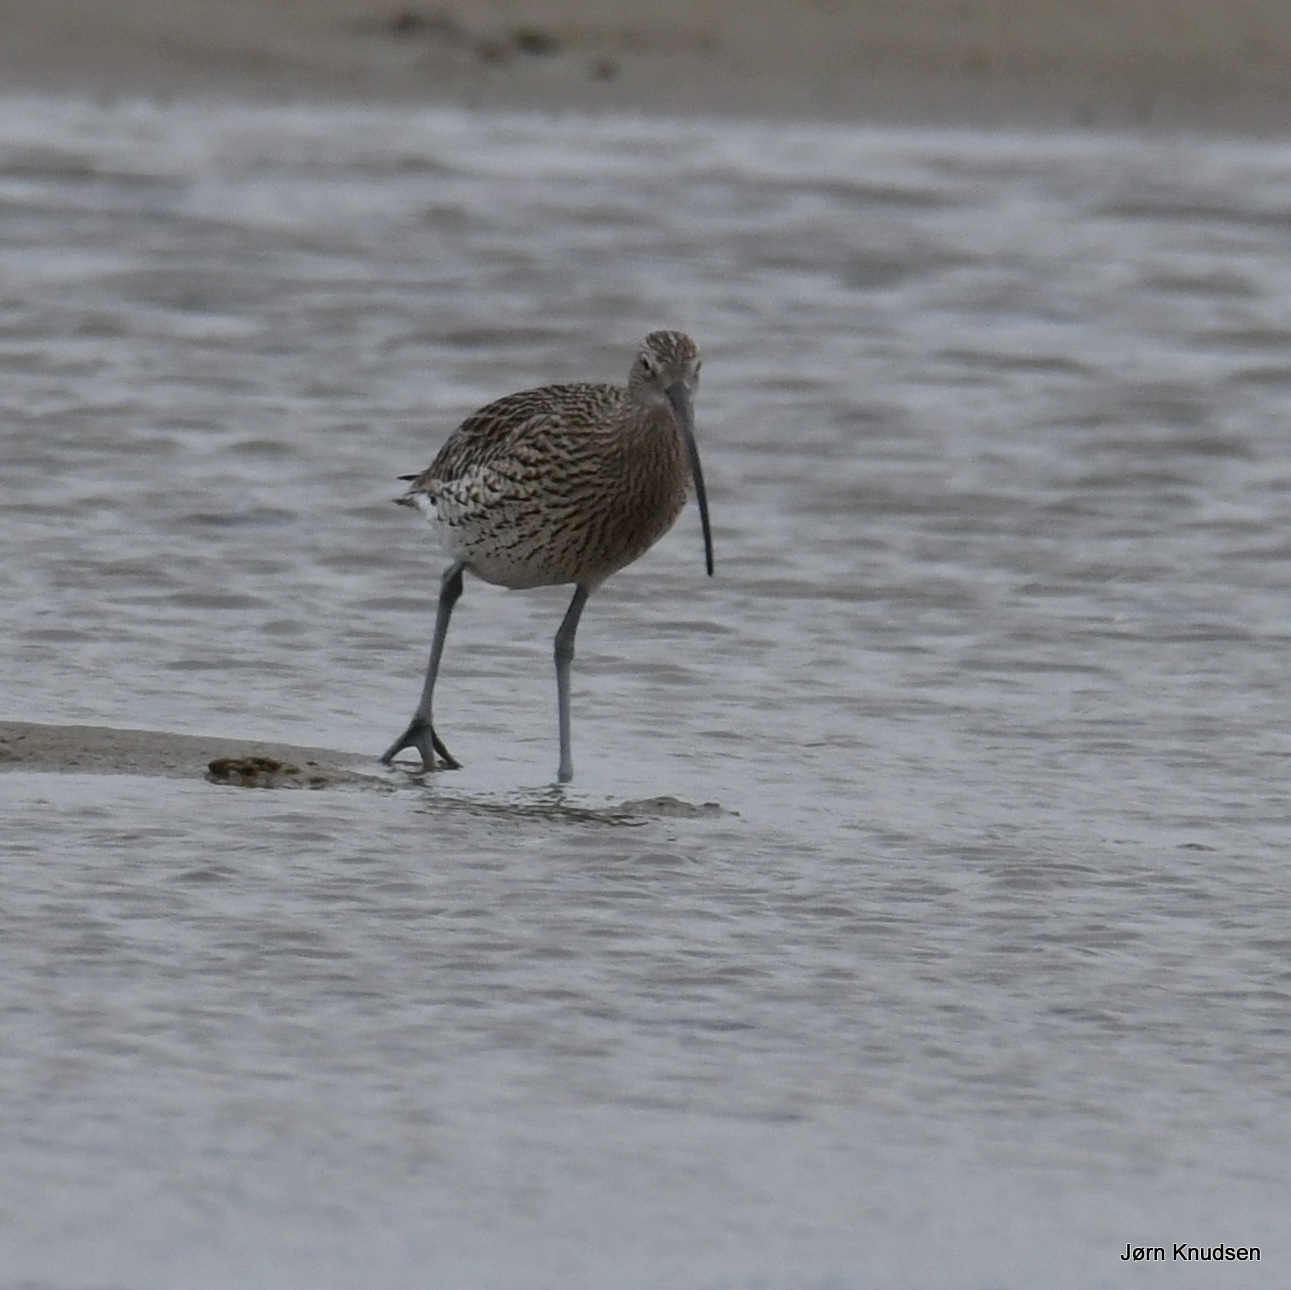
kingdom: Animalia
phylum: Chordata
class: Aves
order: Charadriiformes
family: Scolopacidae
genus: Numenius
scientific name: Numenius arquata
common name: Storspove
